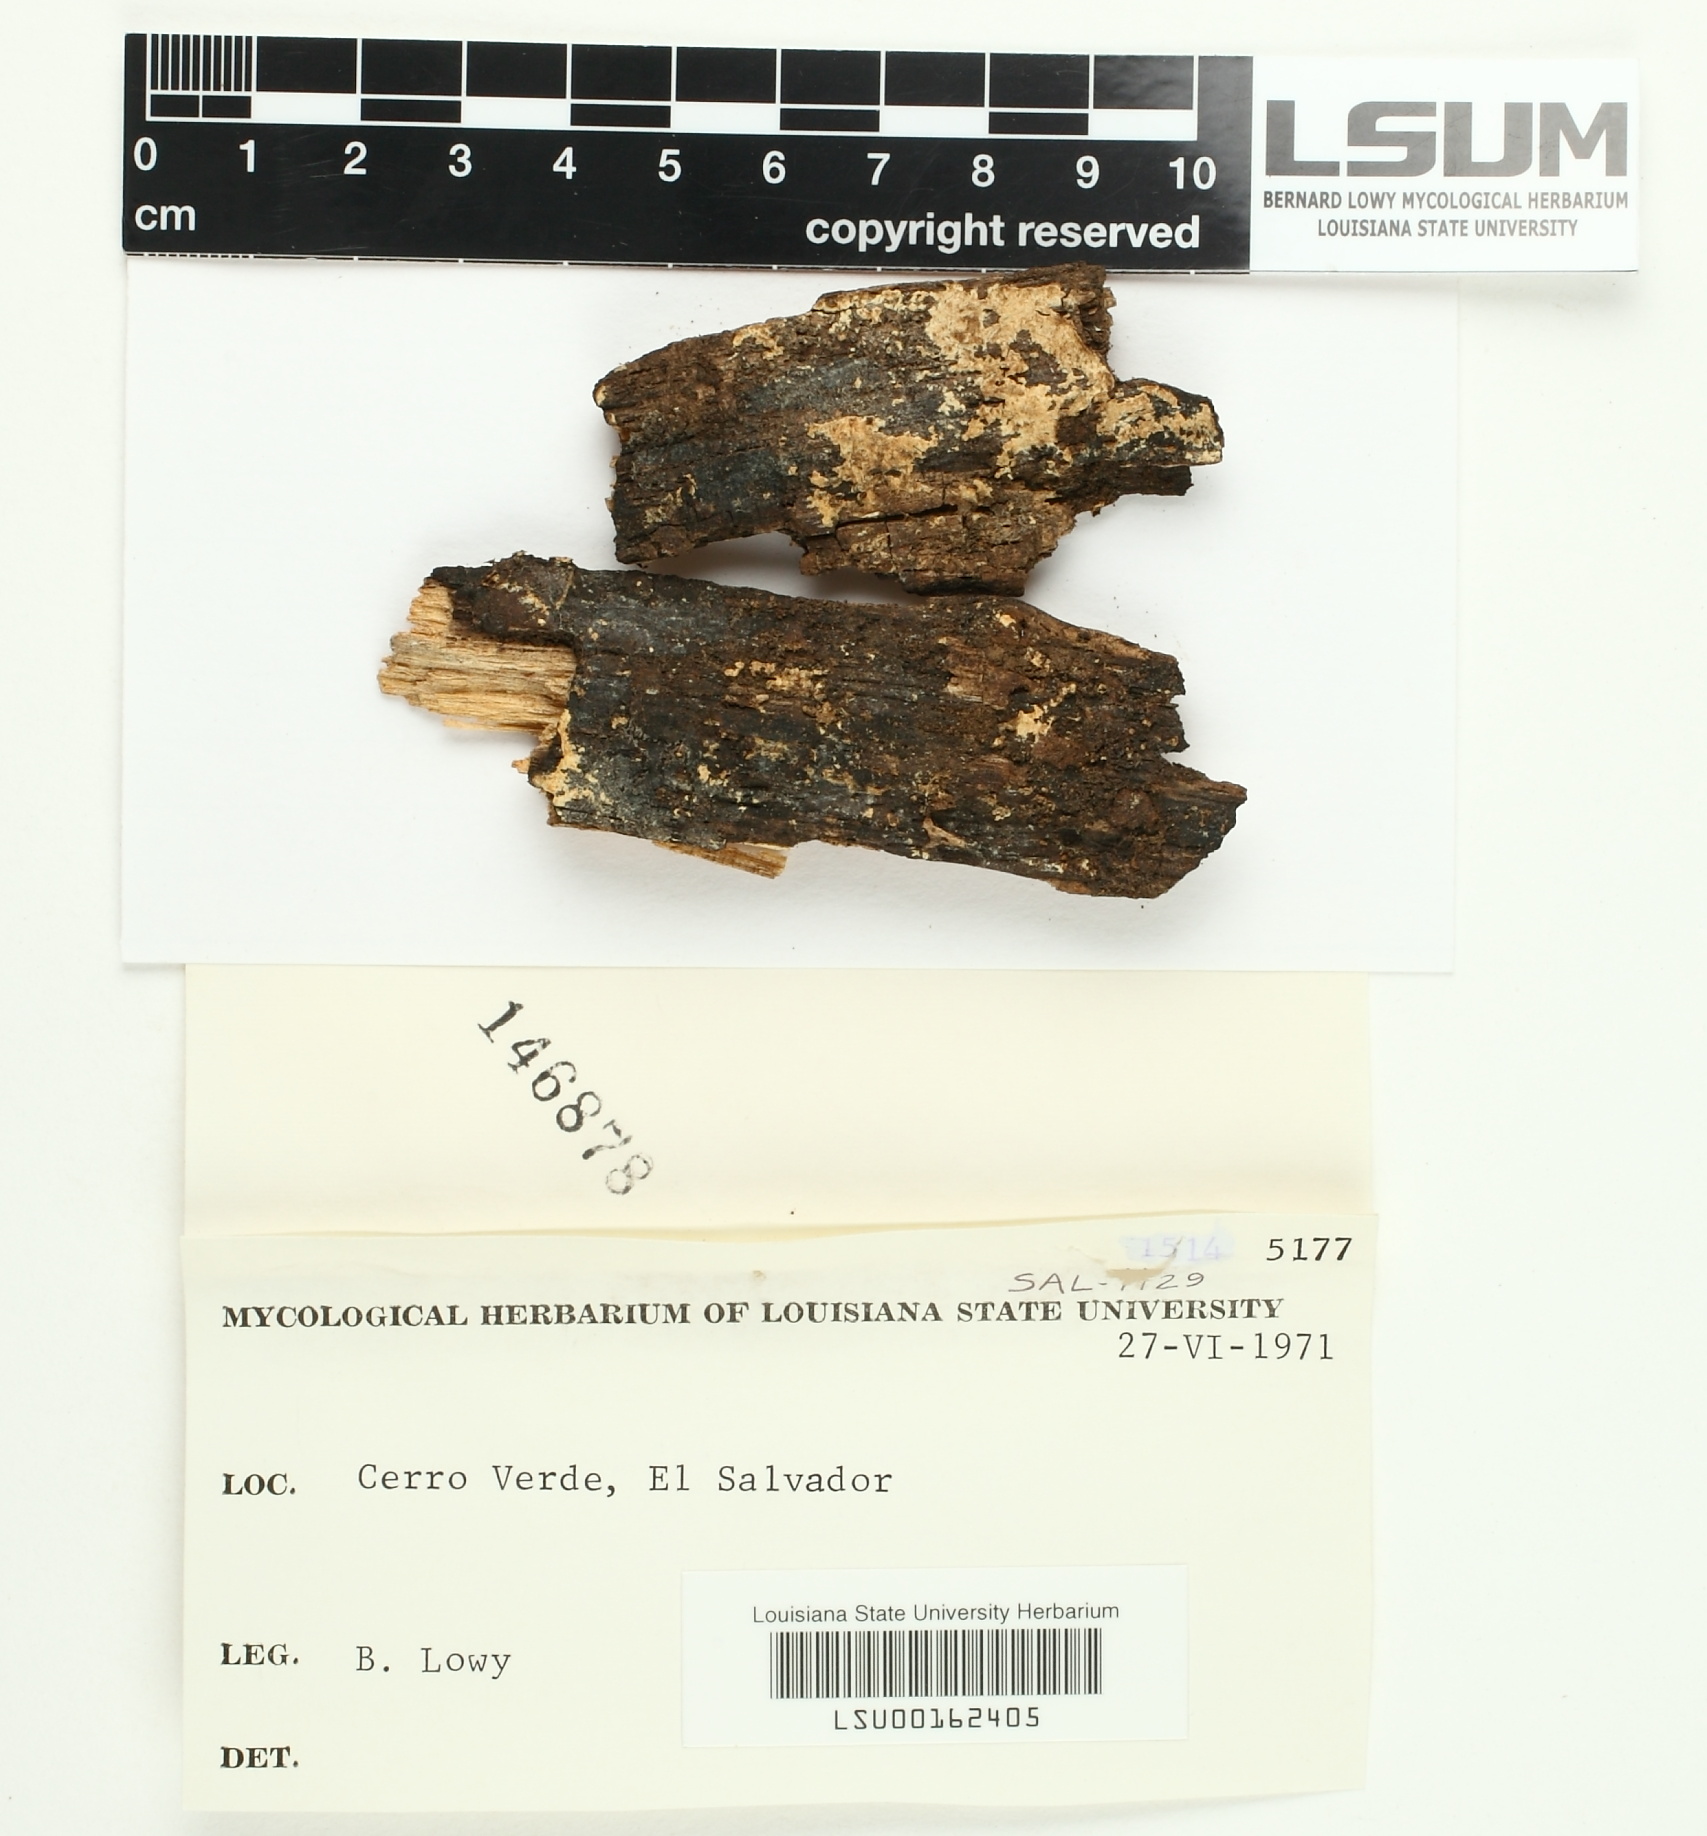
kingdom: Fungi
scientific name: Fungi
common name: Fungi
